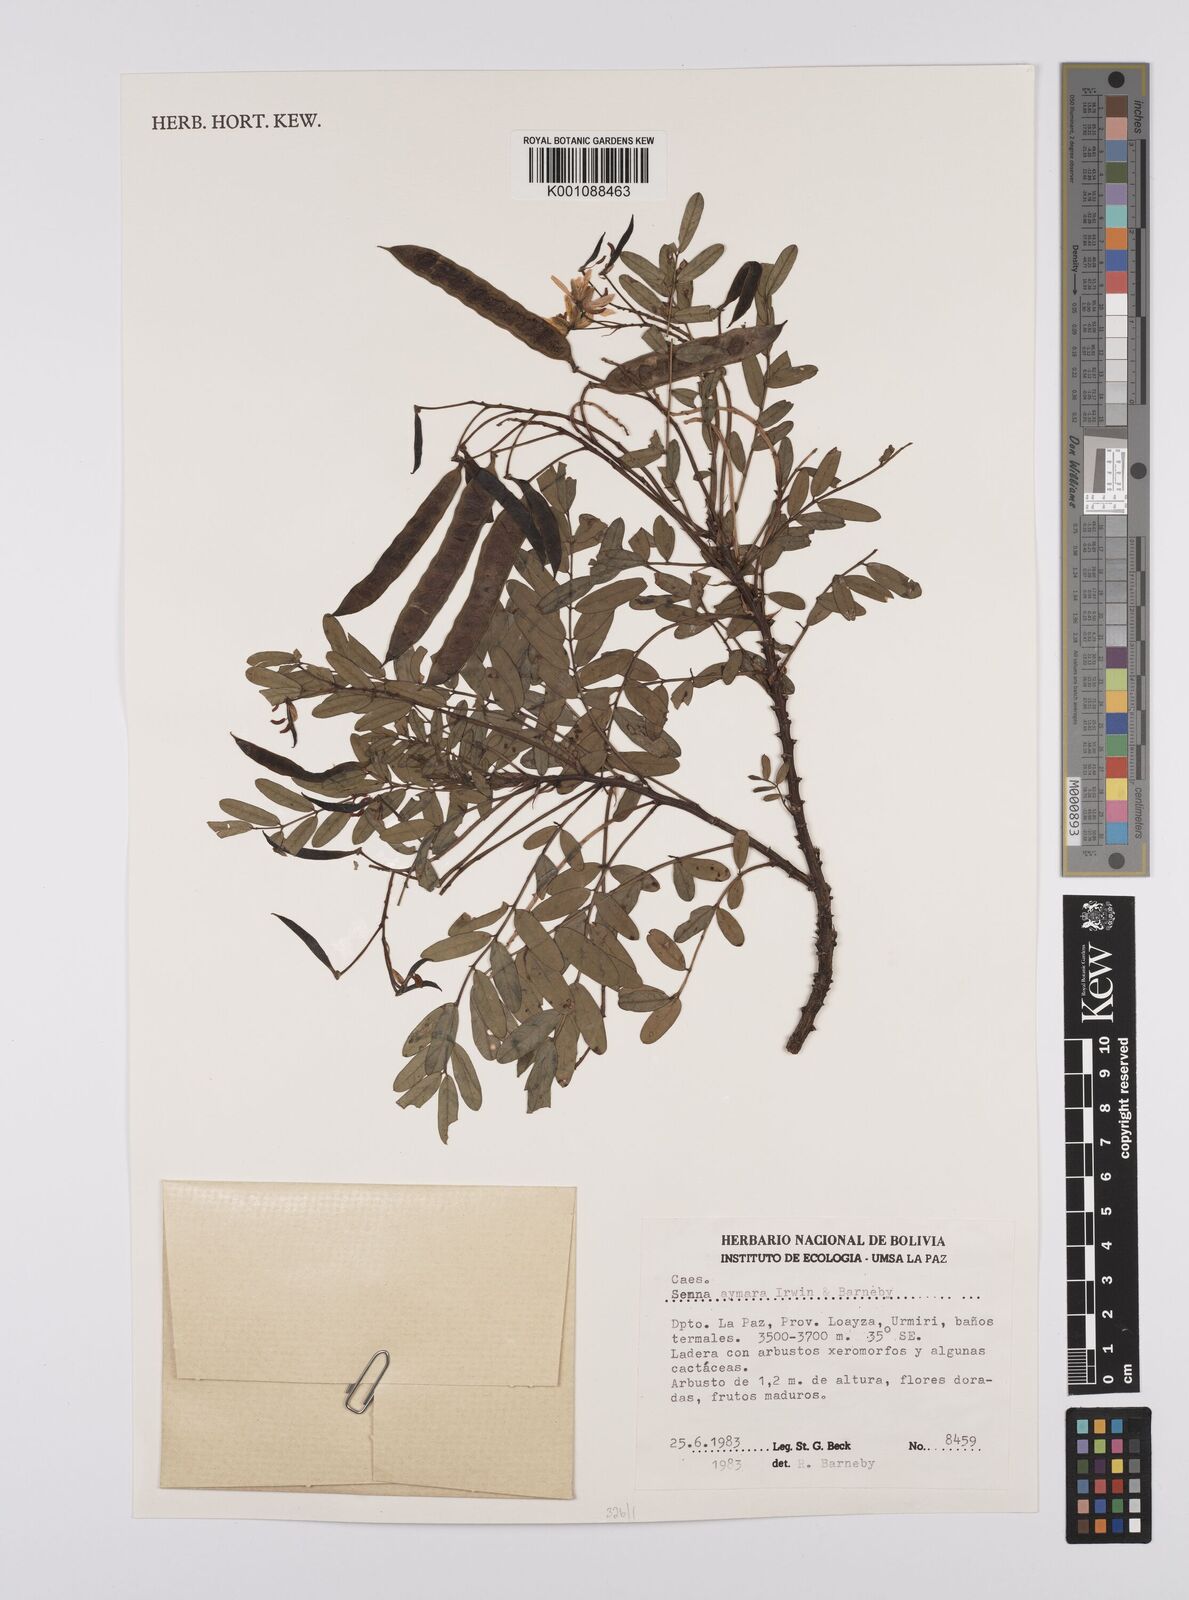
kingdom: Plantae
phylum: Tracheophyta
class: Magnoliopsida
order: Fabales
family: Fabaceae
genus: Senna
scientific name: Senna aymara
